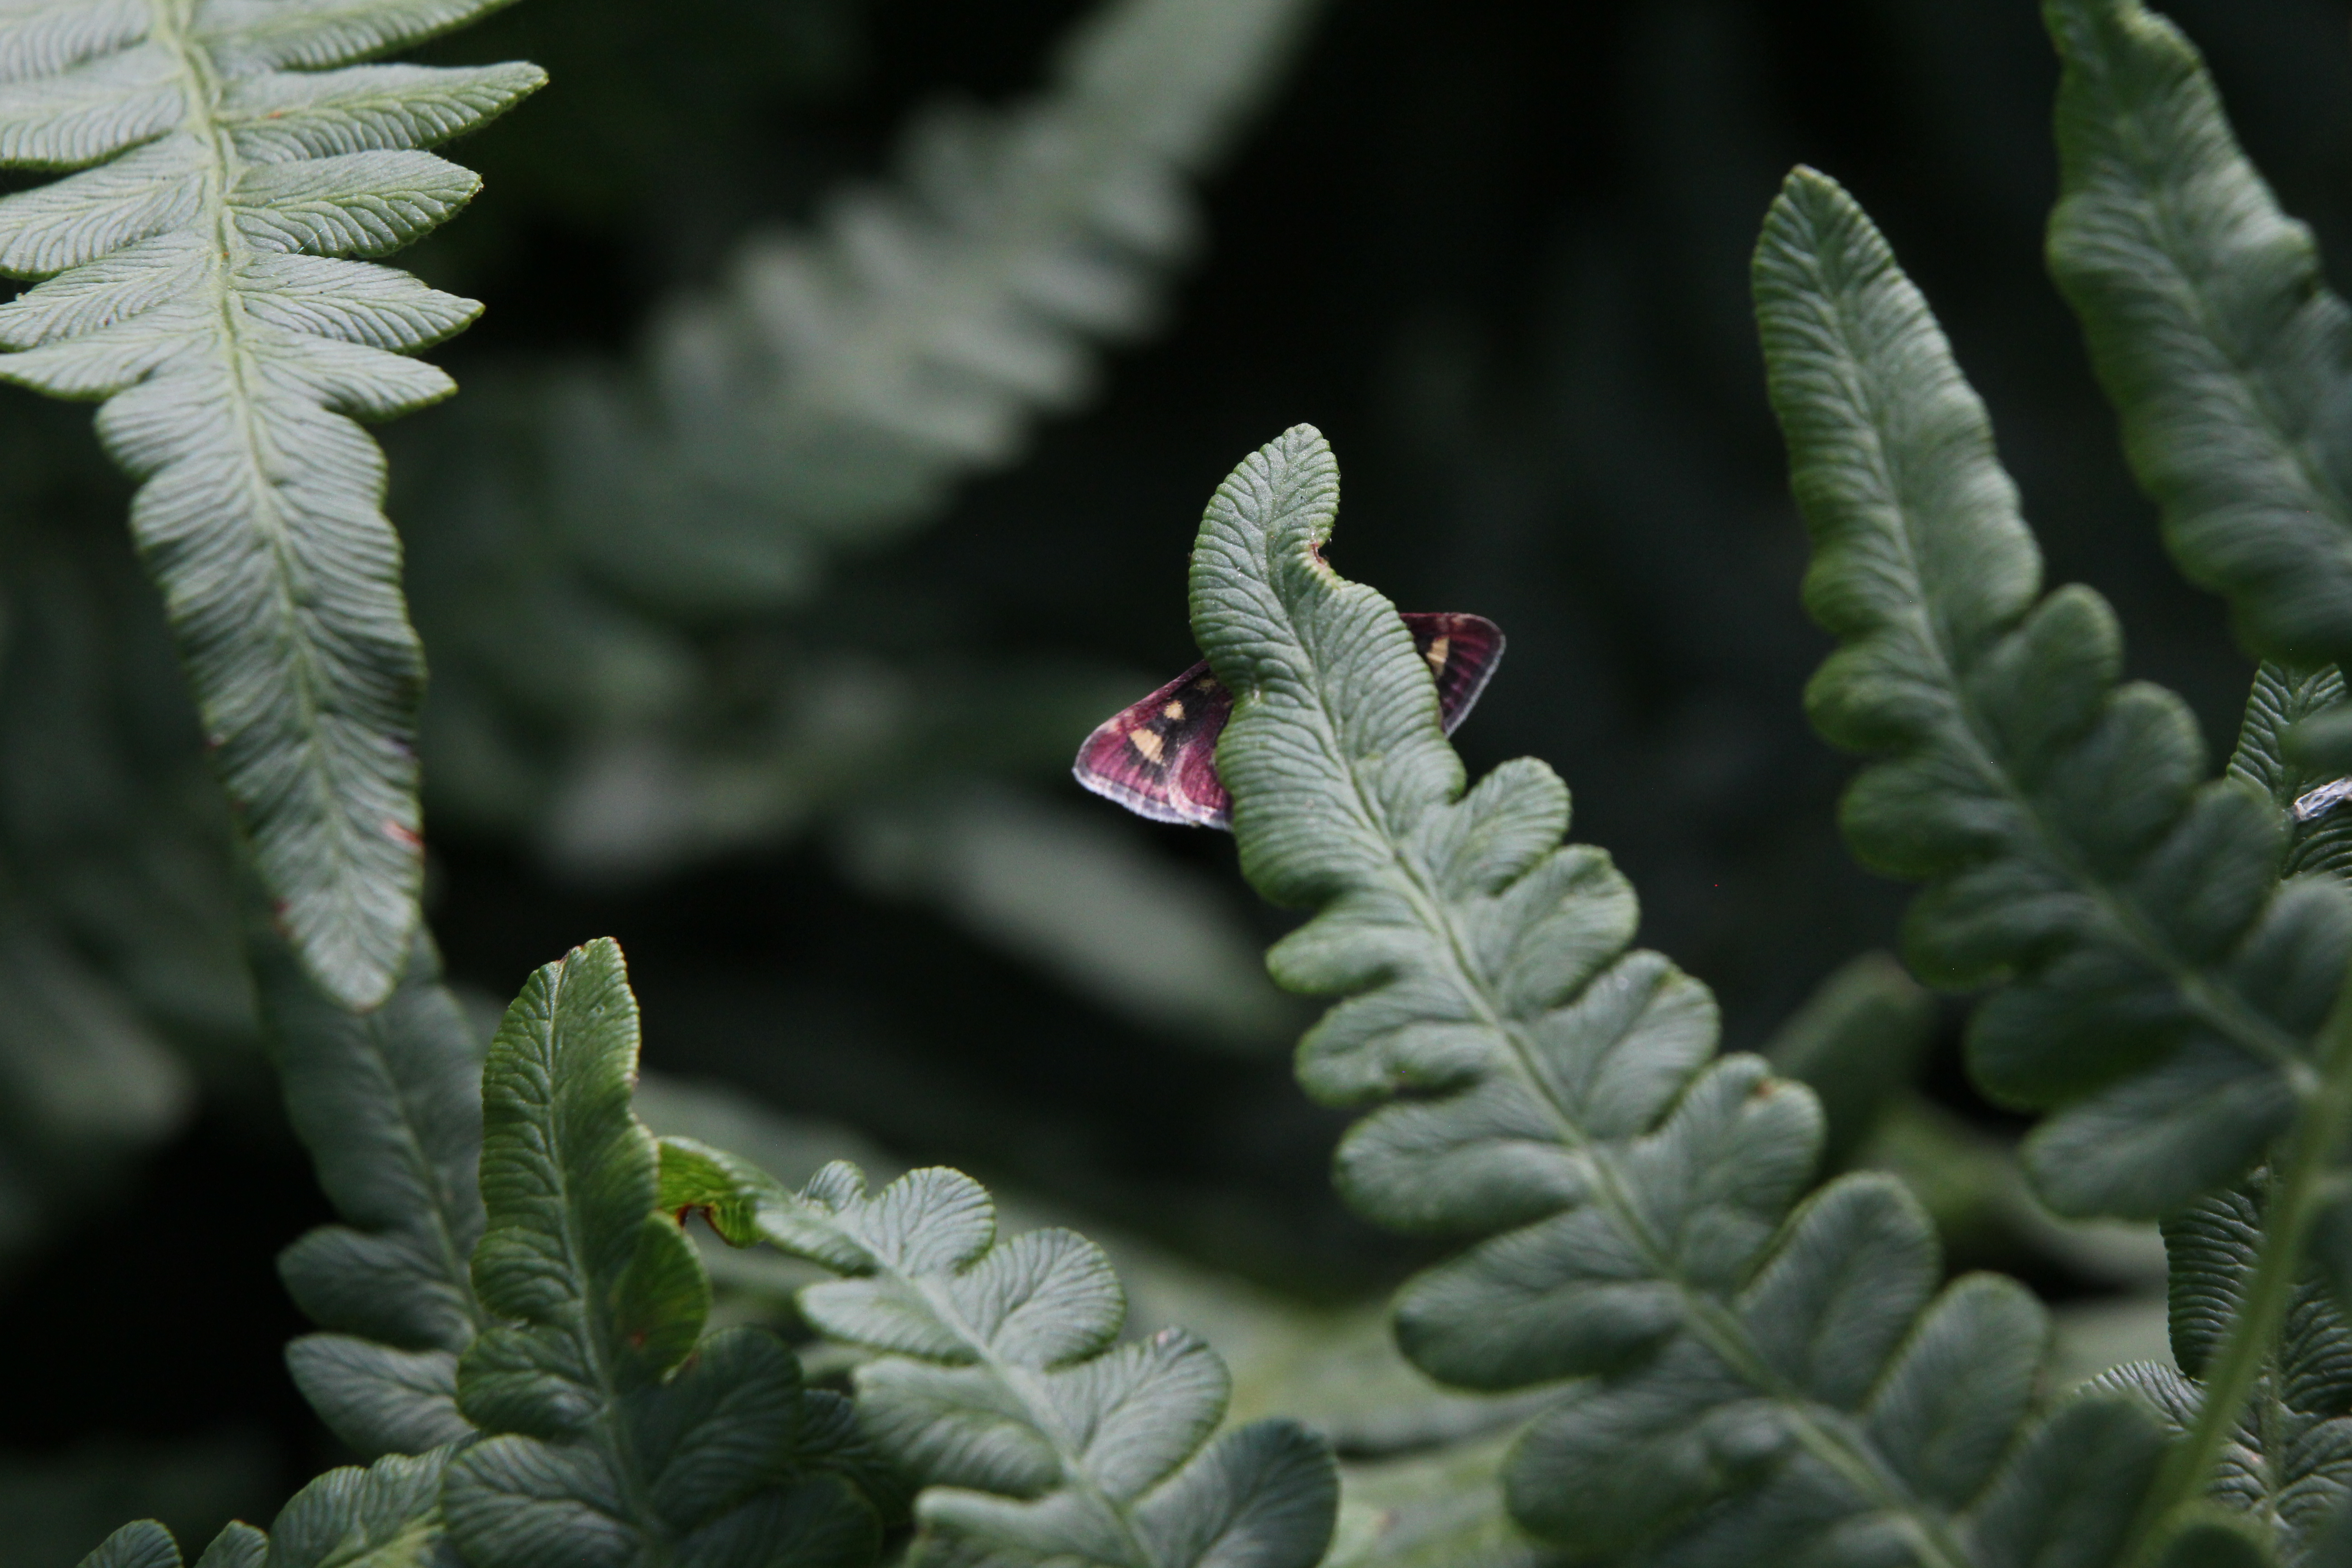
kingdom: Animalia
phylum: Arthropoda
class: Insecta
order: Lepidoptera
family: Crambidae
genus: Pyrausta
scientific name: Pyrausta purpuralis
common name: Common purple & gold
